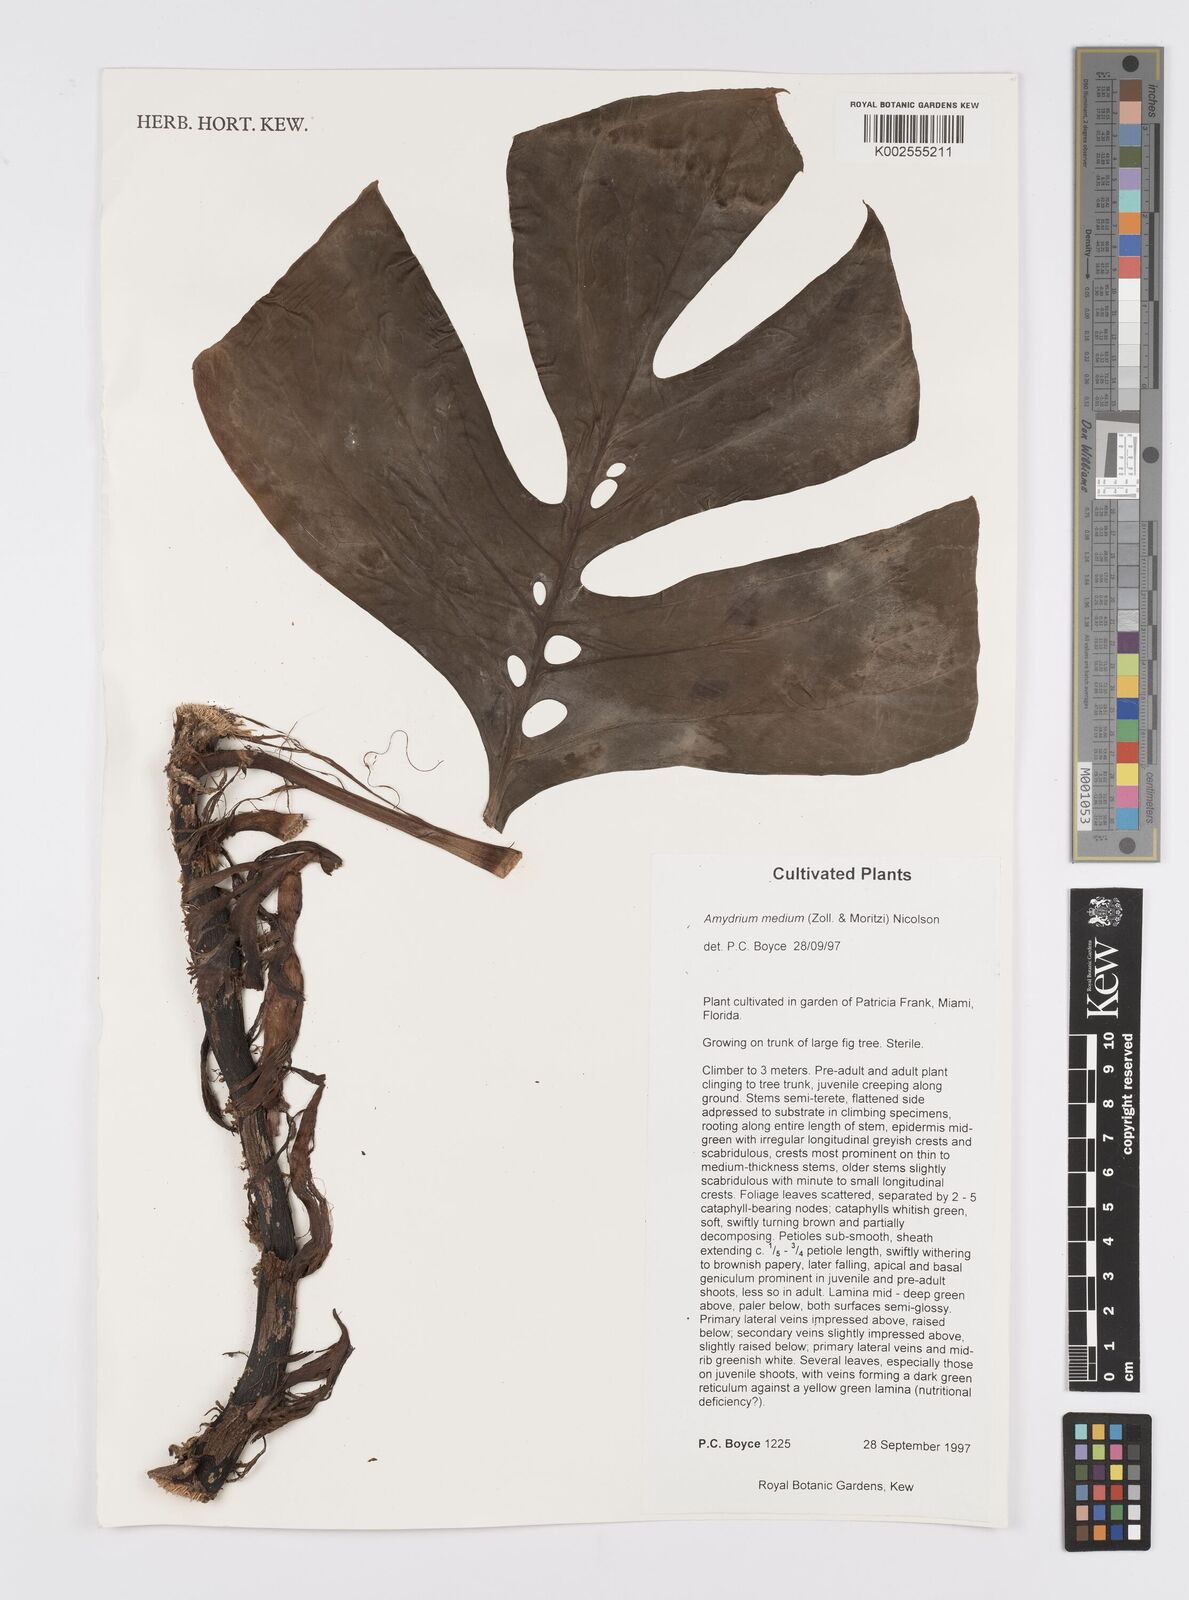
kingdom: Plantae
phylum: Tracheophyta
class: Liliopsida
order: Alismatales
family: Araceae
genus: Amydrium
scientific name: Amydrium medium
